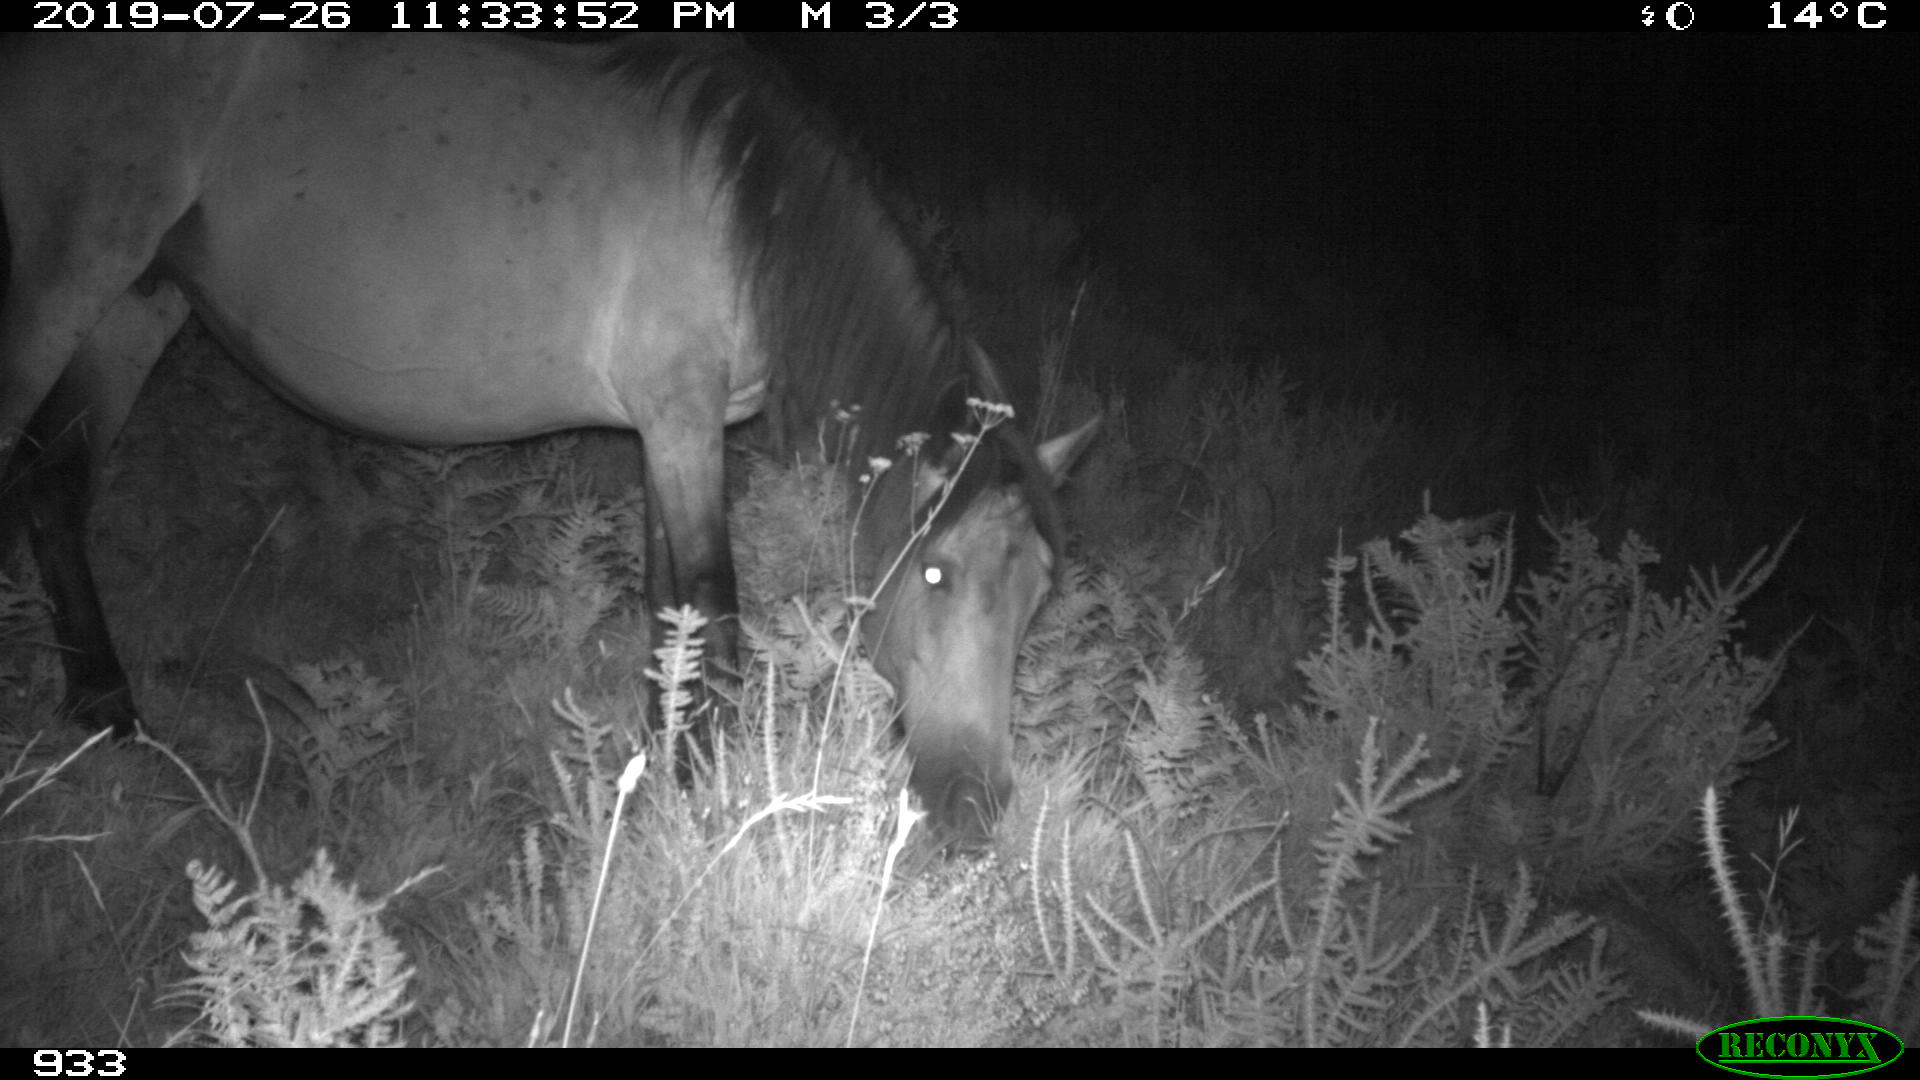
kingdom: Animalia
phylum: Chordata
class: Mammalia
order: Perissodactyla
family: Equidae
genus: Equus
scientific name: Equus caballus
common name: Horse
